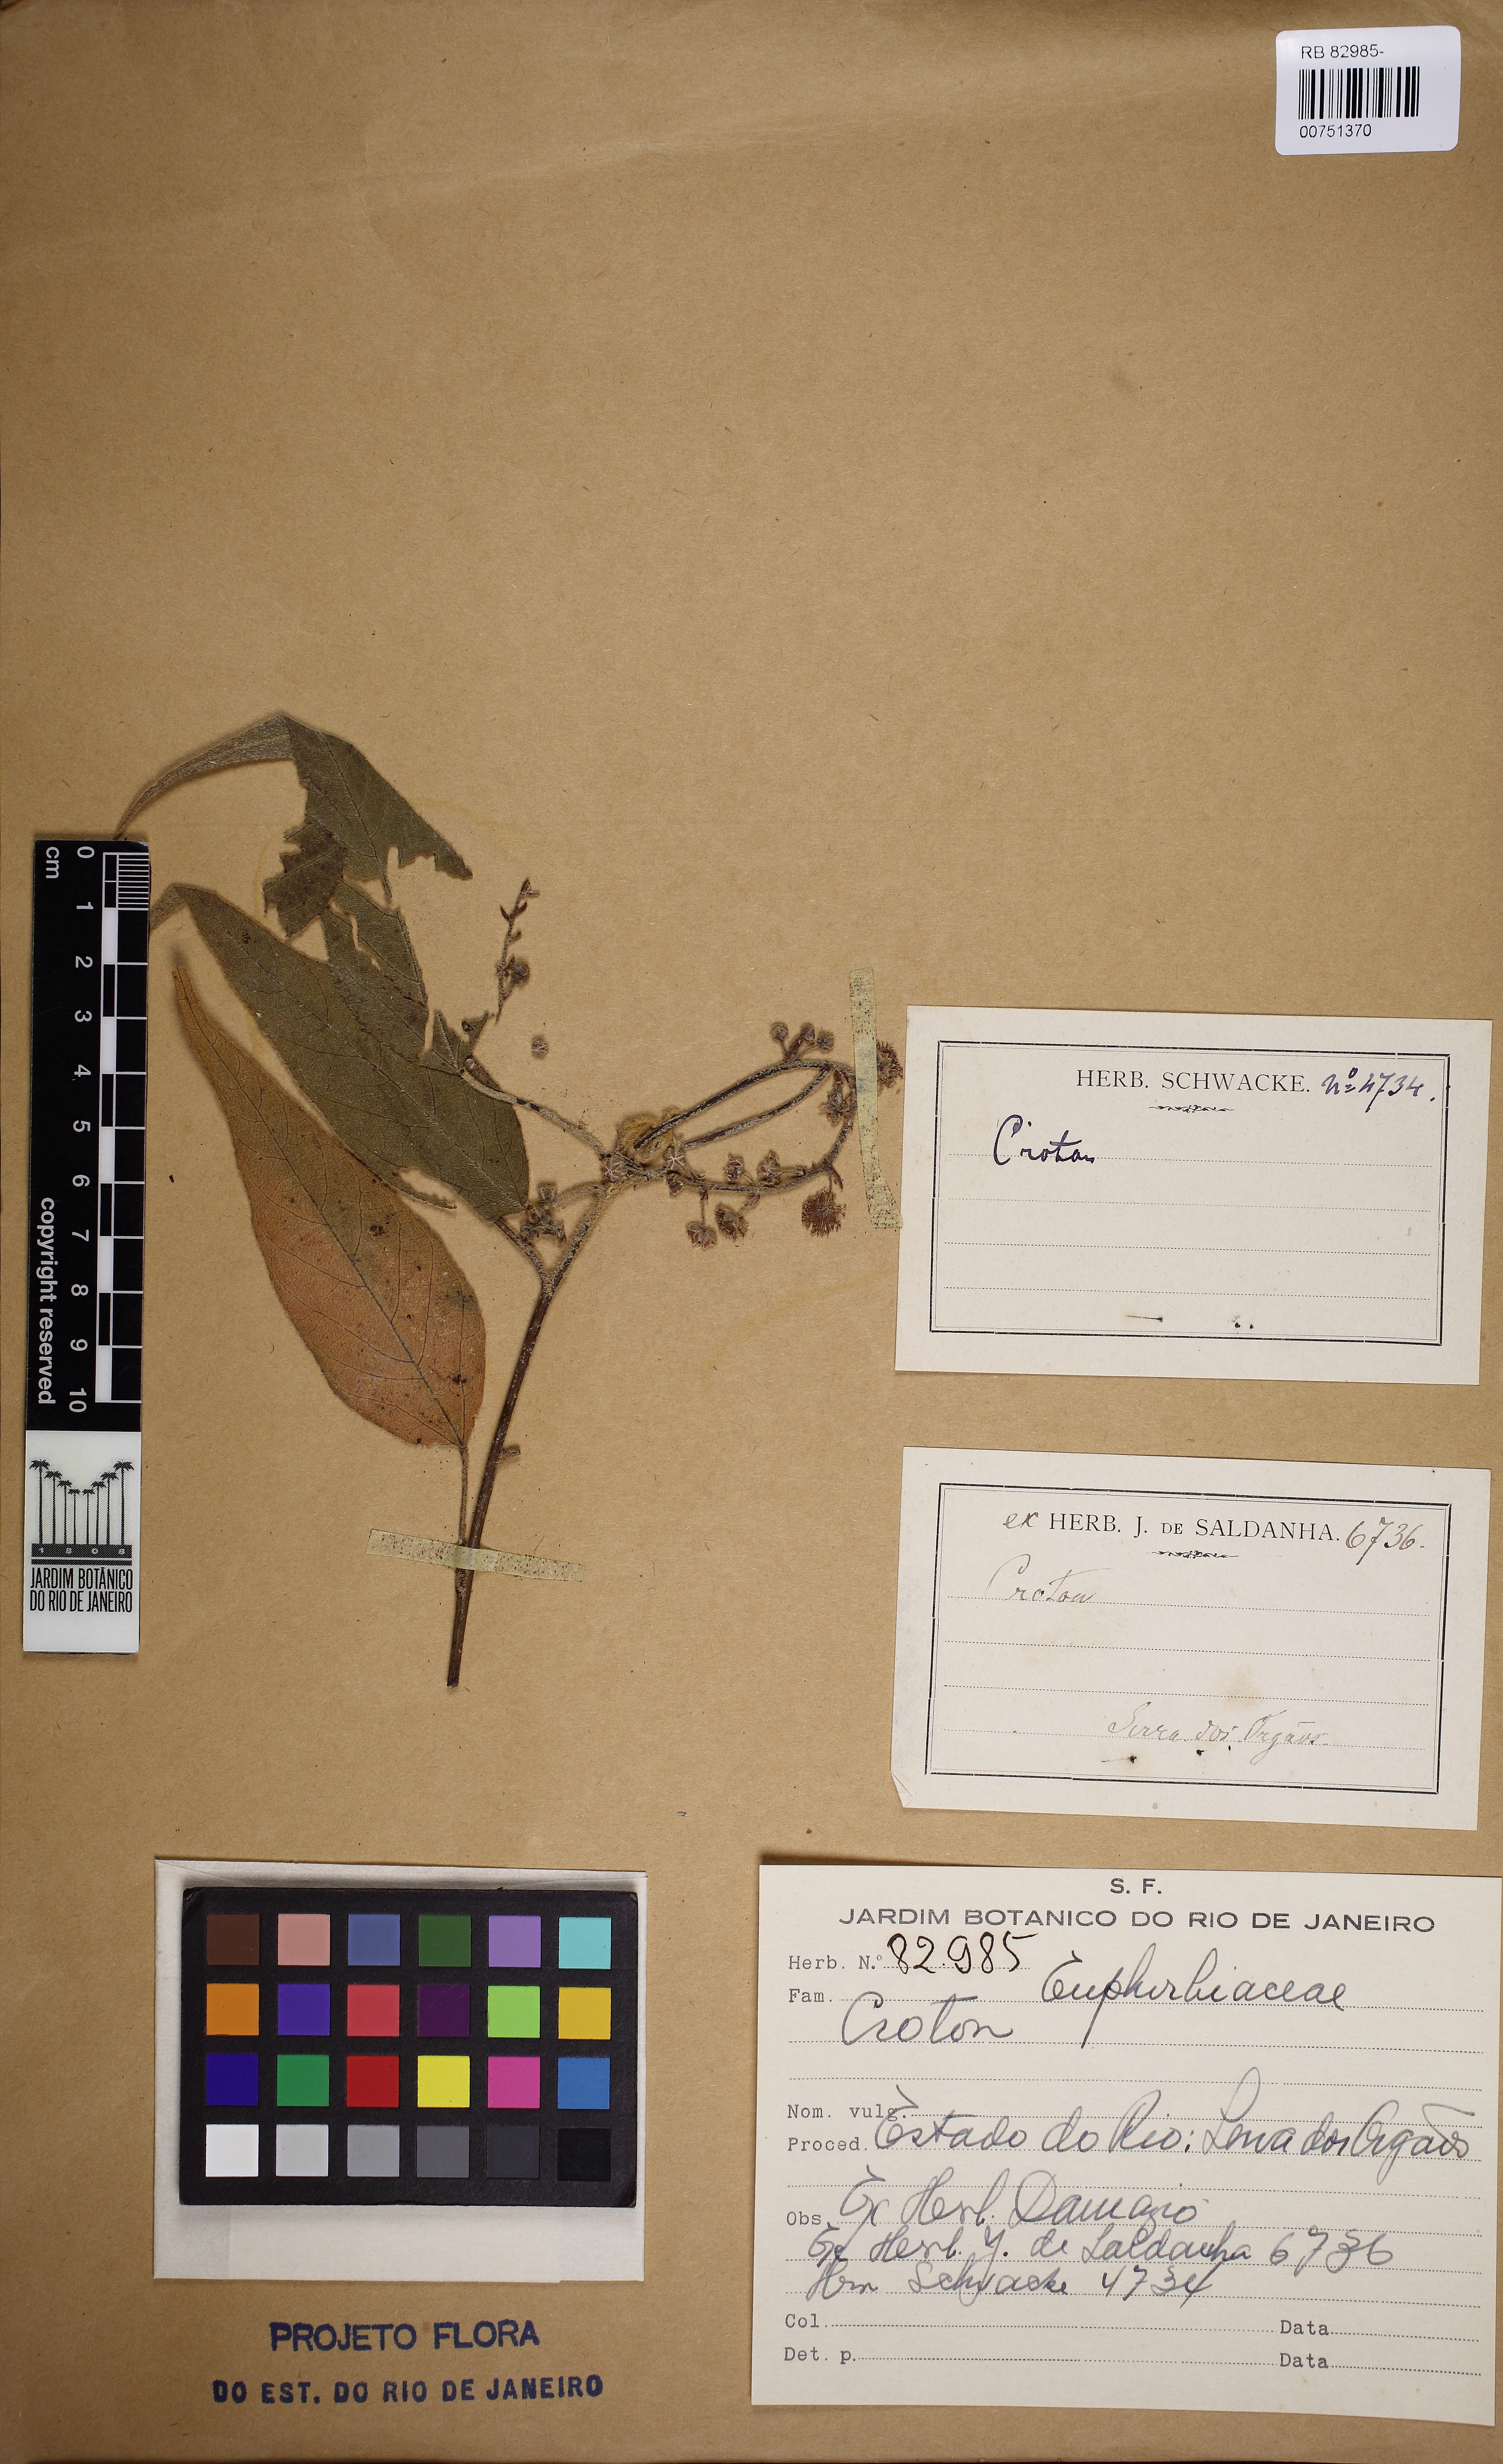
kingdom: Plantae
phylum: Tracheophyta
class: Magnoliopsida
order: Malpighiales
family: Euphorbiaceae
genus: Croton
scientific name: Croton alchorneicarpus
